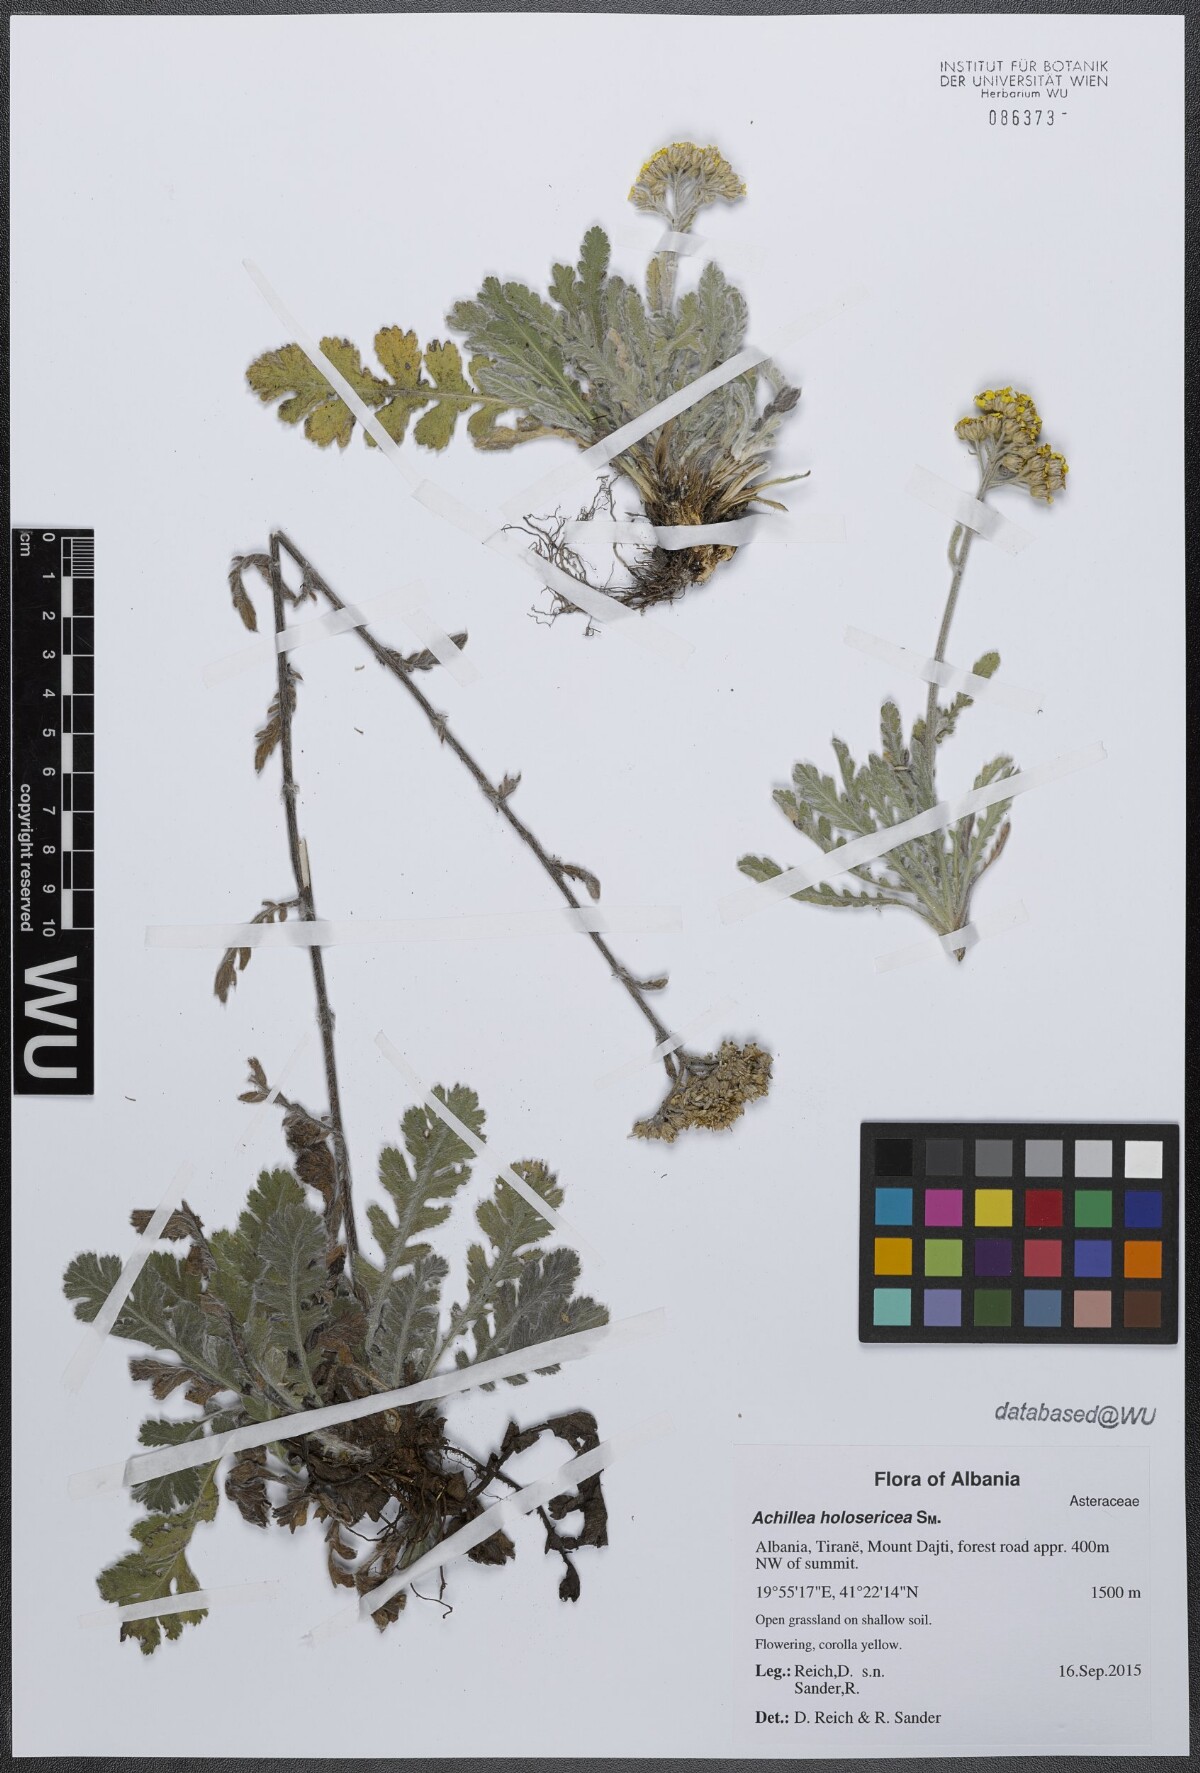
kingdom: Plantae
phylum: Tracheophyta
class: Magnoliopsida
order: Asterales
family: Asteraceae
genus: Achillea
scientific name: Achillea holosericea
